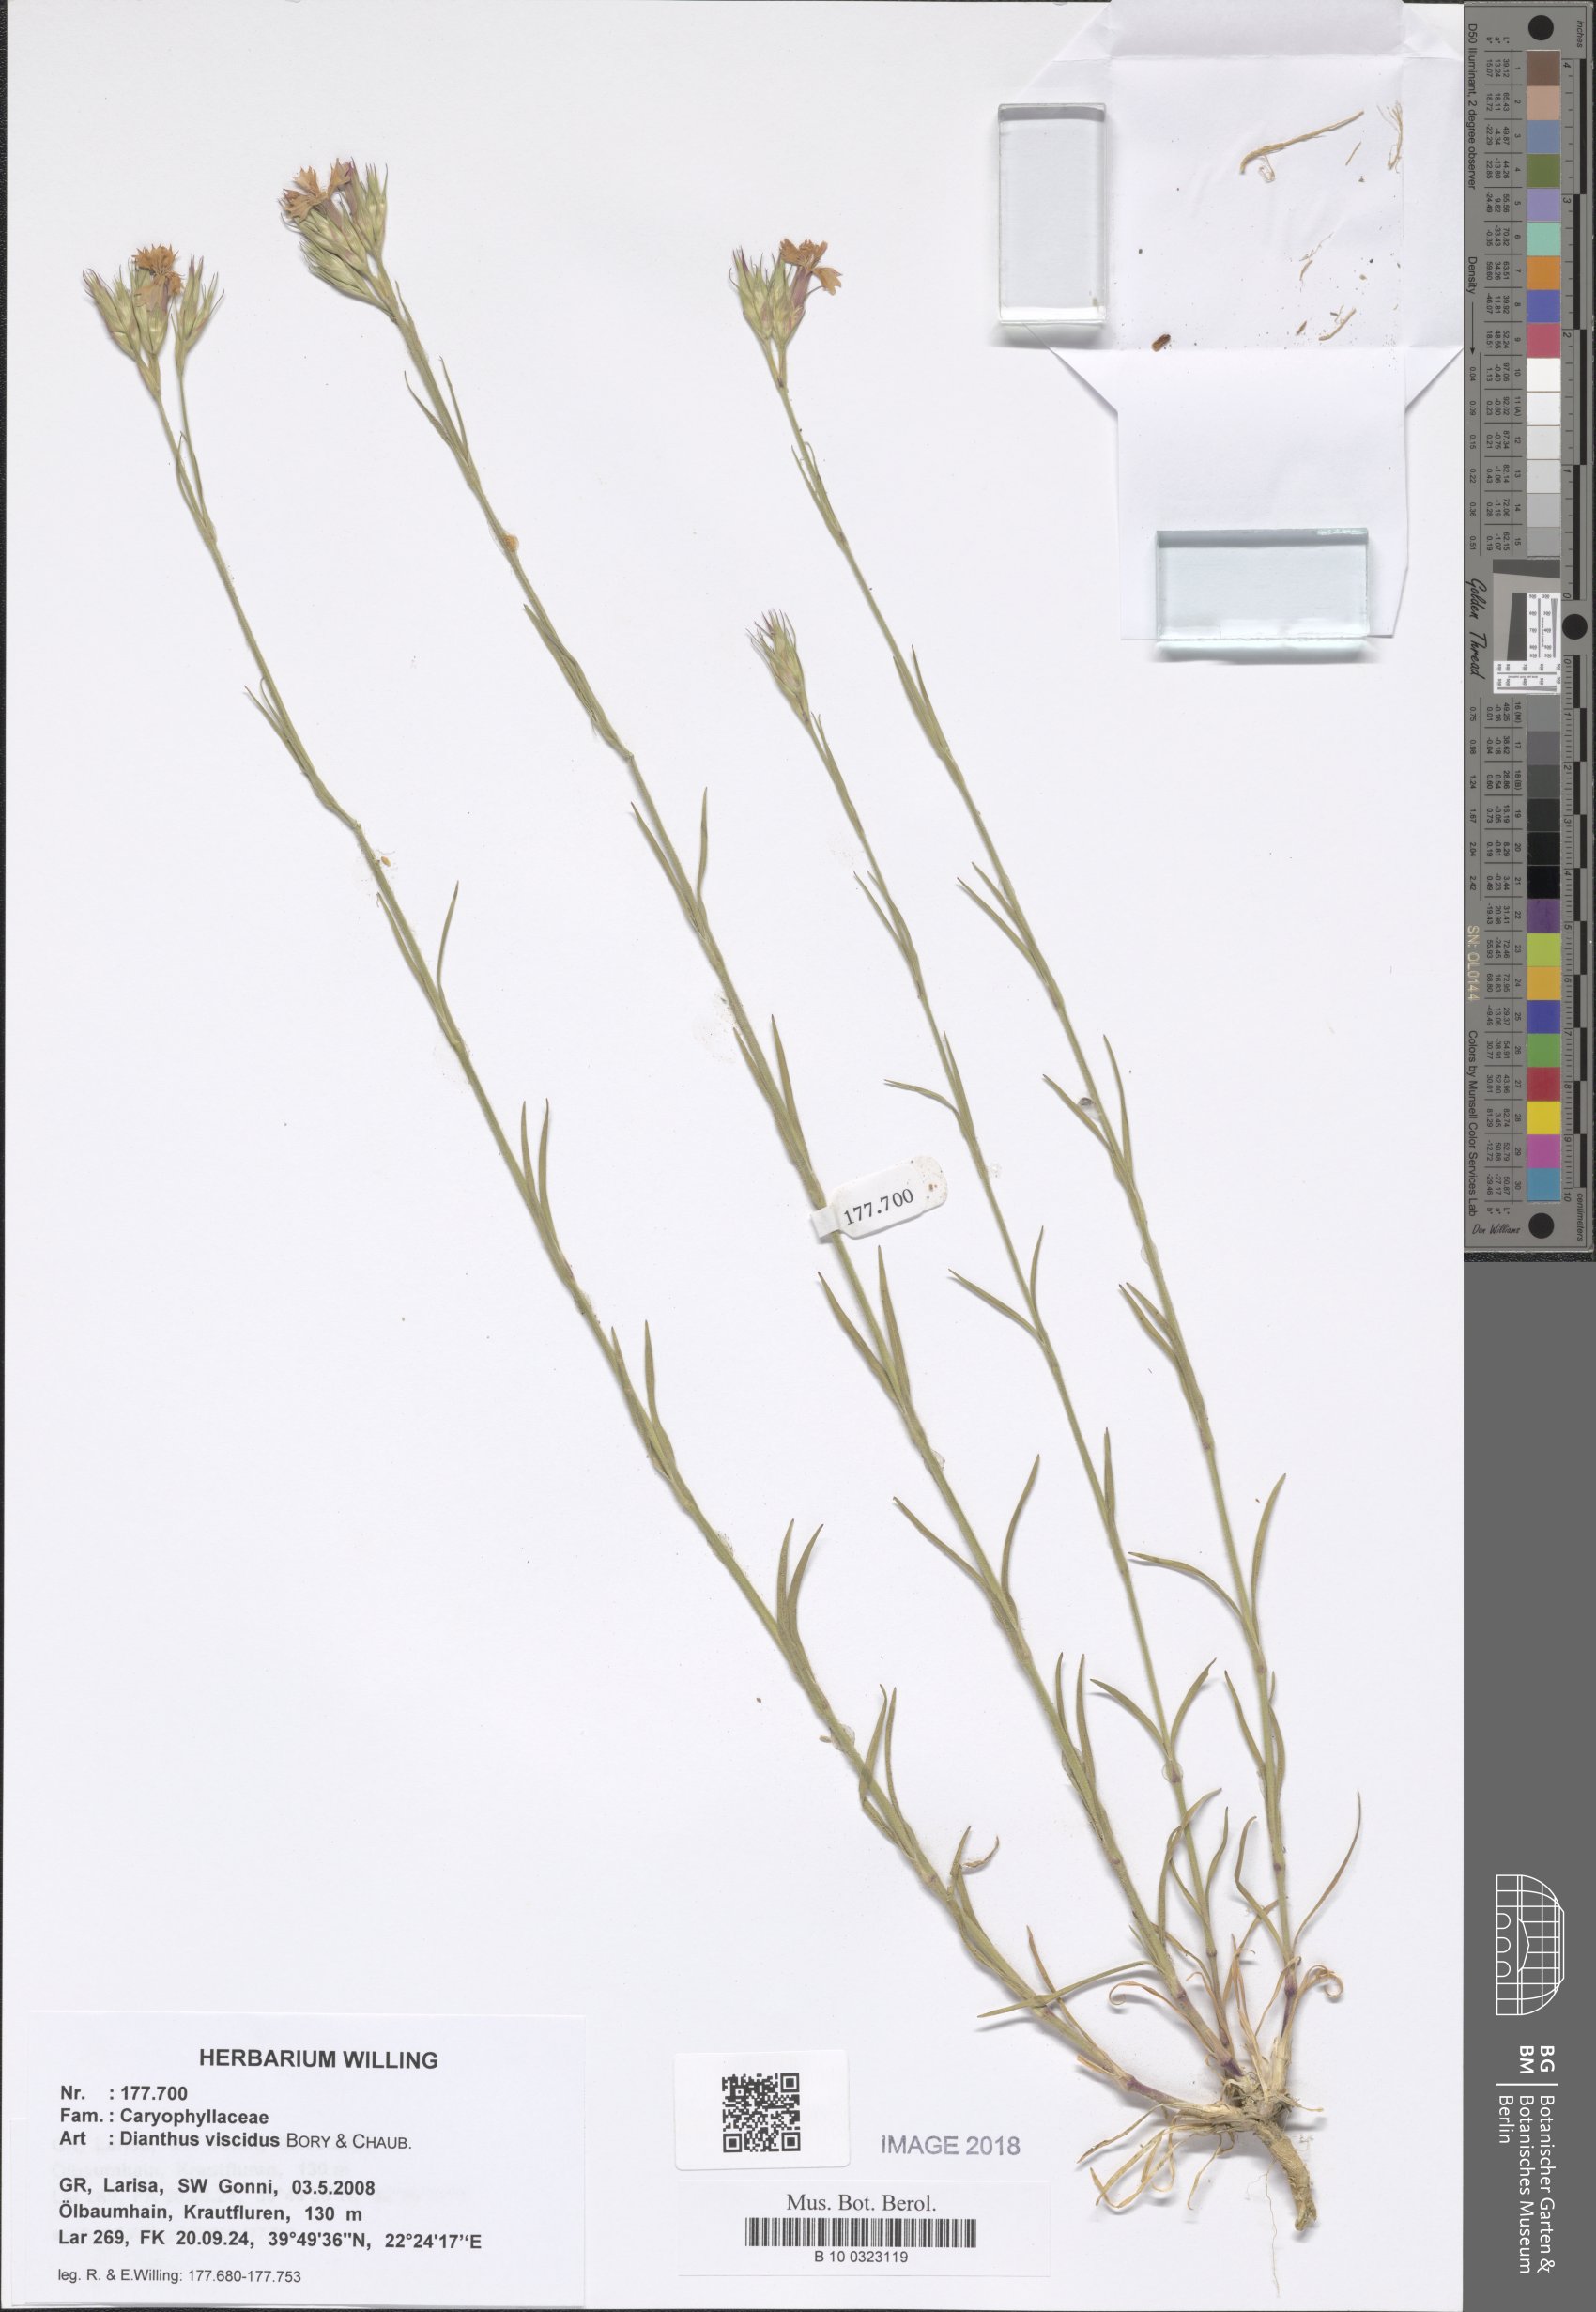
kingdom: Plantae
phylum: Tracheophyta
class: Magnoliopsida
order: Caryophyllales
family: Caryophyllaceae
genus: Dianthus
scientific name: Dianthus viscidus
